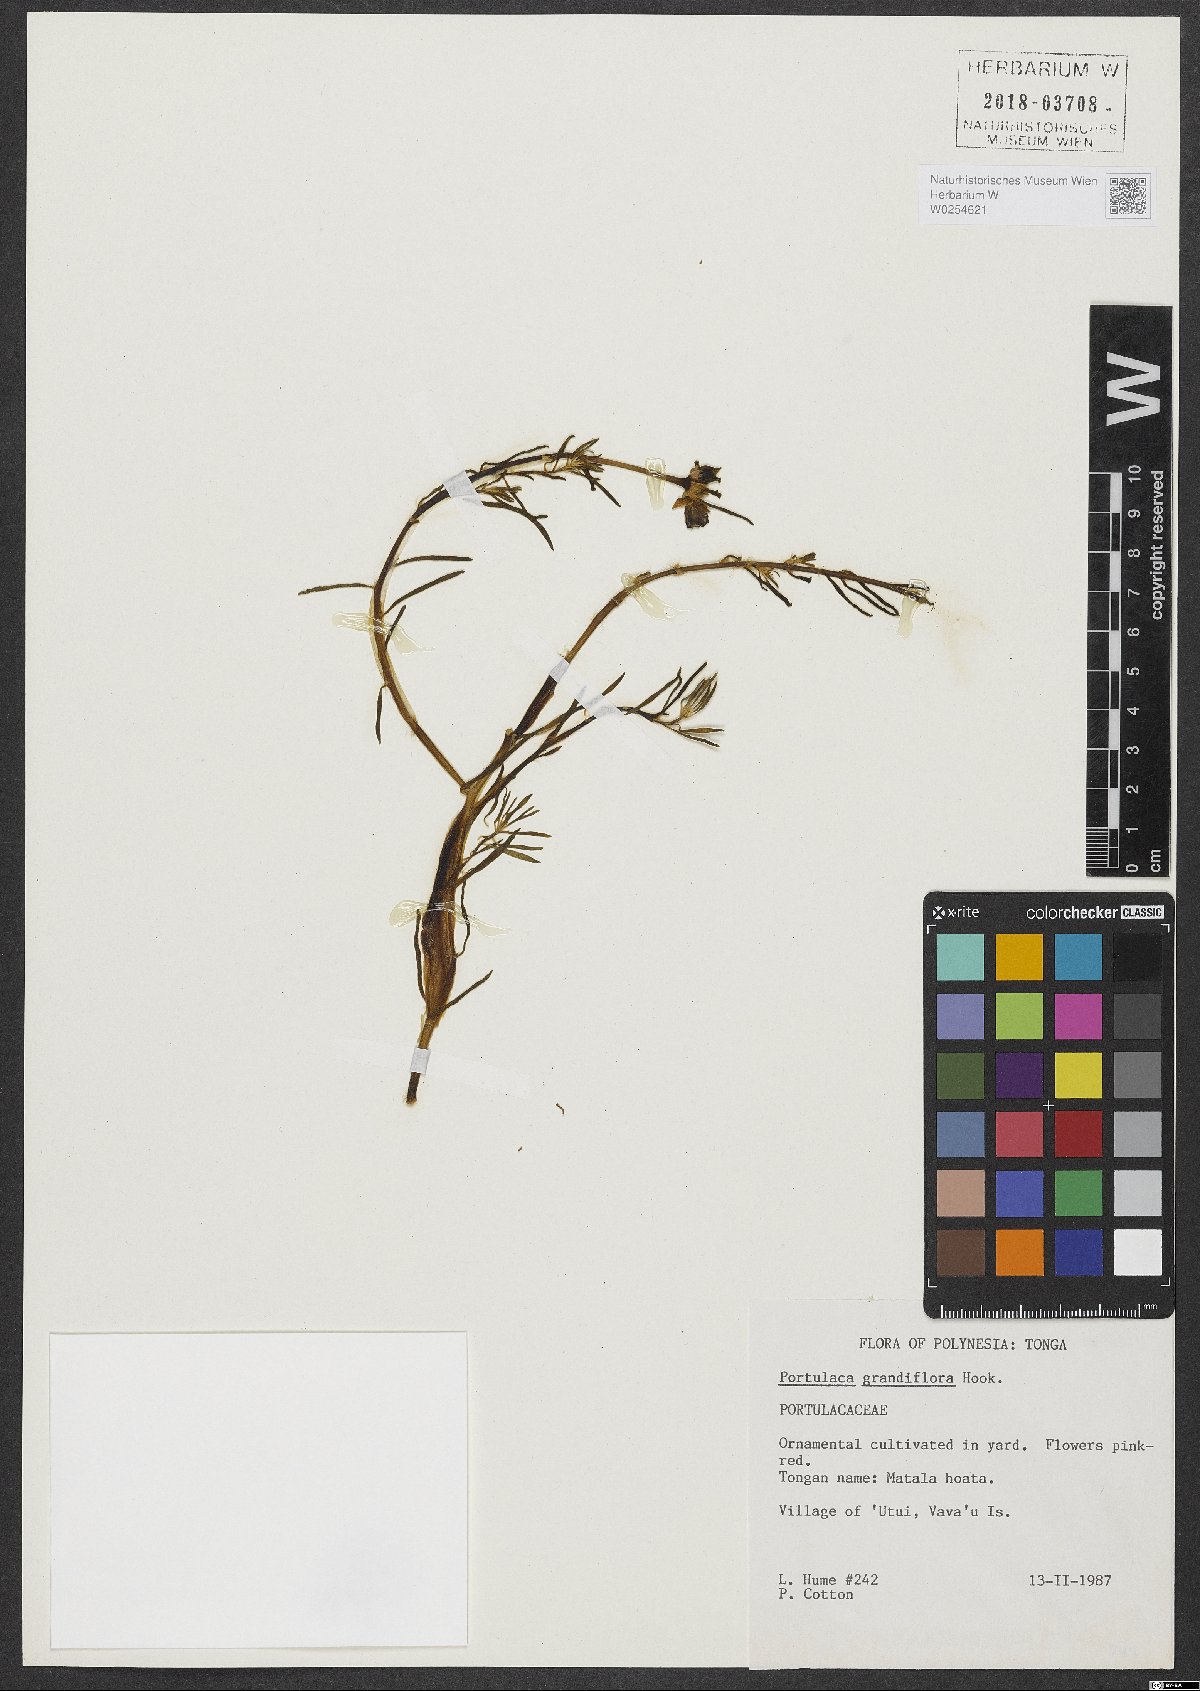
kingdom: Plantae
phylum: Tracheophyta
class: Magnoliopsida
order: Caryophyllales
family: Portulacaceae
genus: Portulaca
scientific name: Portulaca grandiflora
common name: Moss-rose
